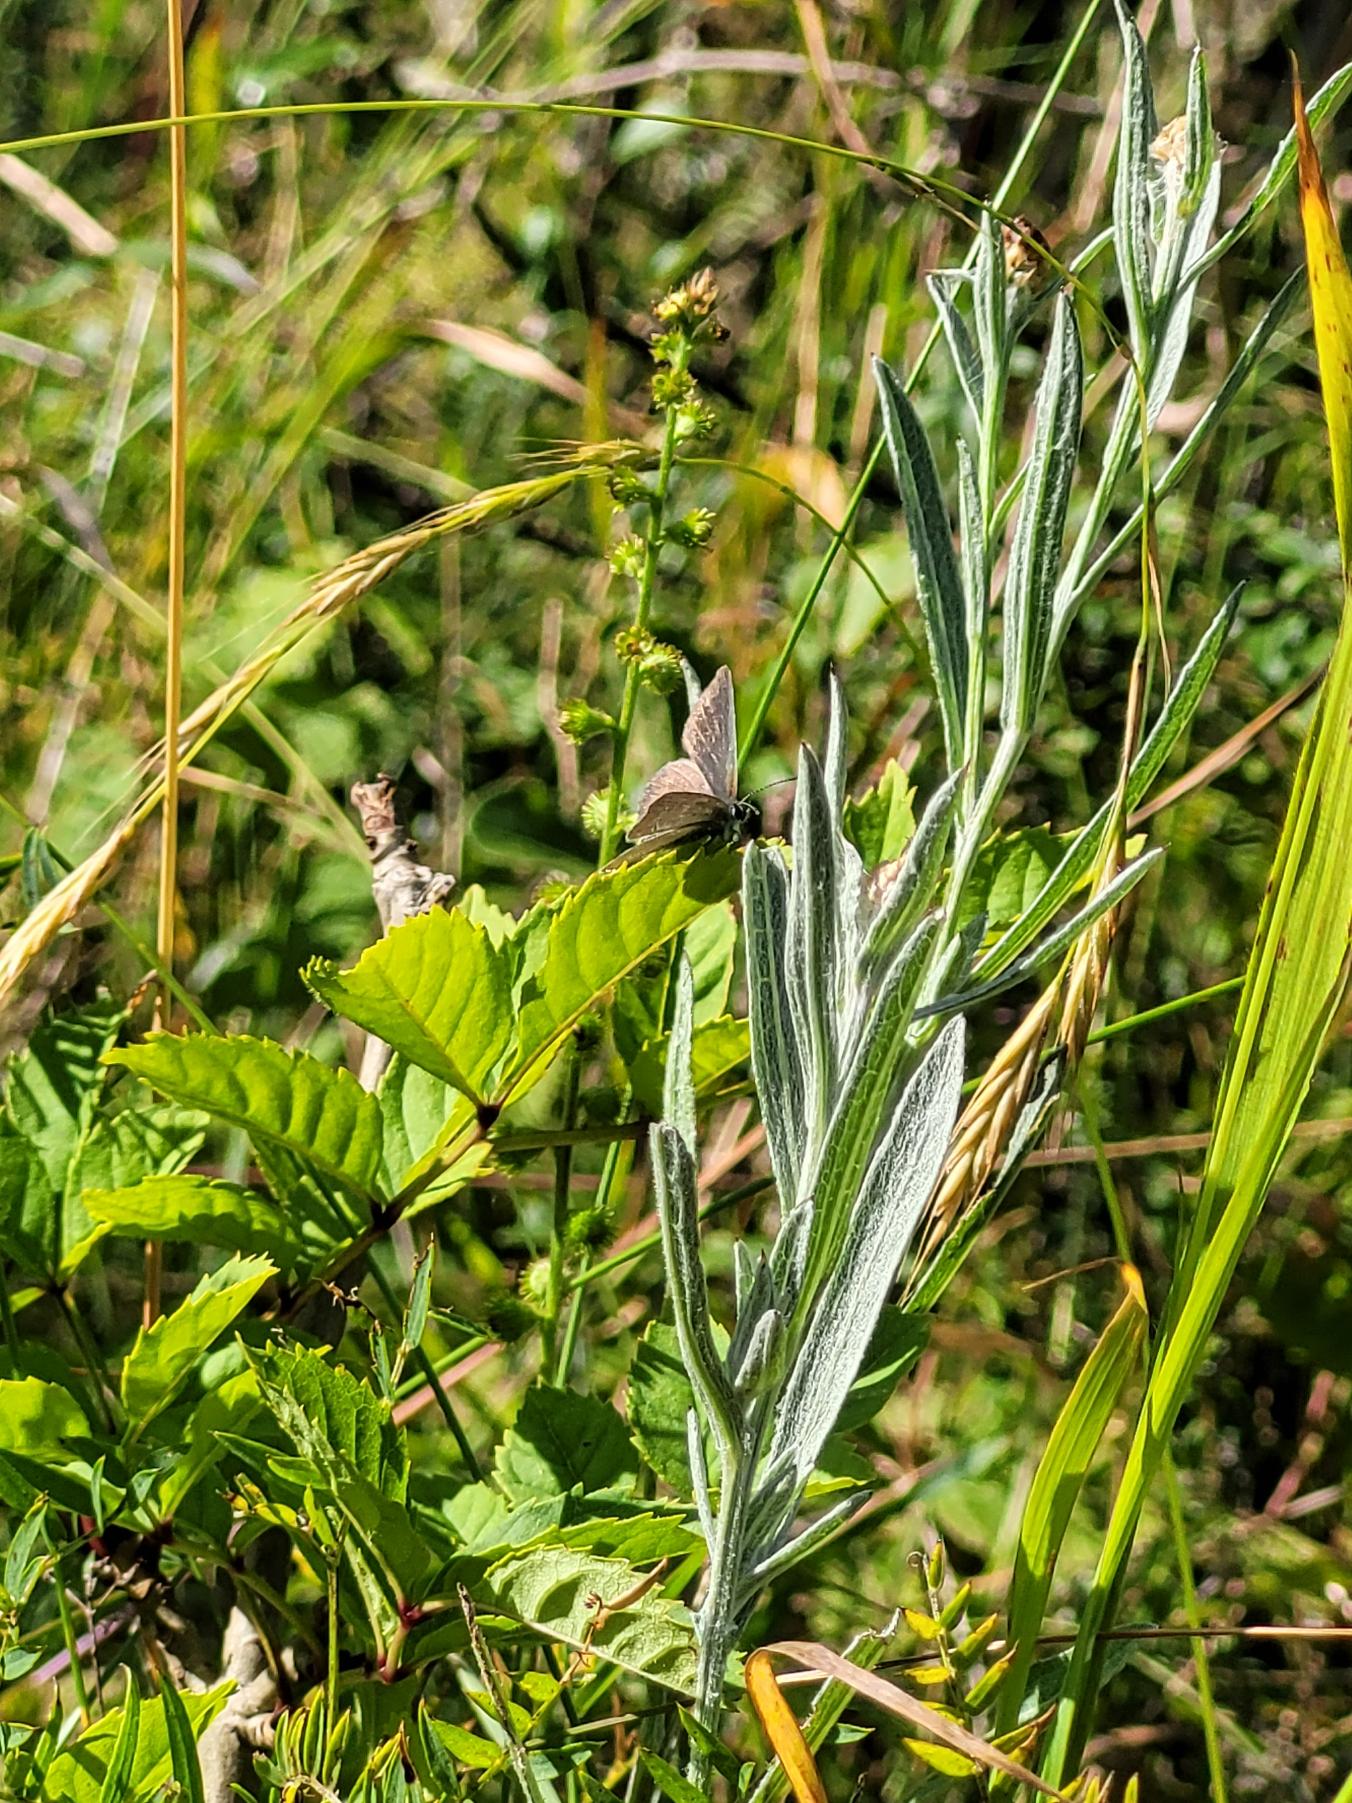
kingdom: Animalia
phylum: Arthropoda
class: Insecta
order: Lepidoptera
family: Lycaenidae
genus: Cupido
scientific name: Cupido minimus
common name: Dværgblåfugl
